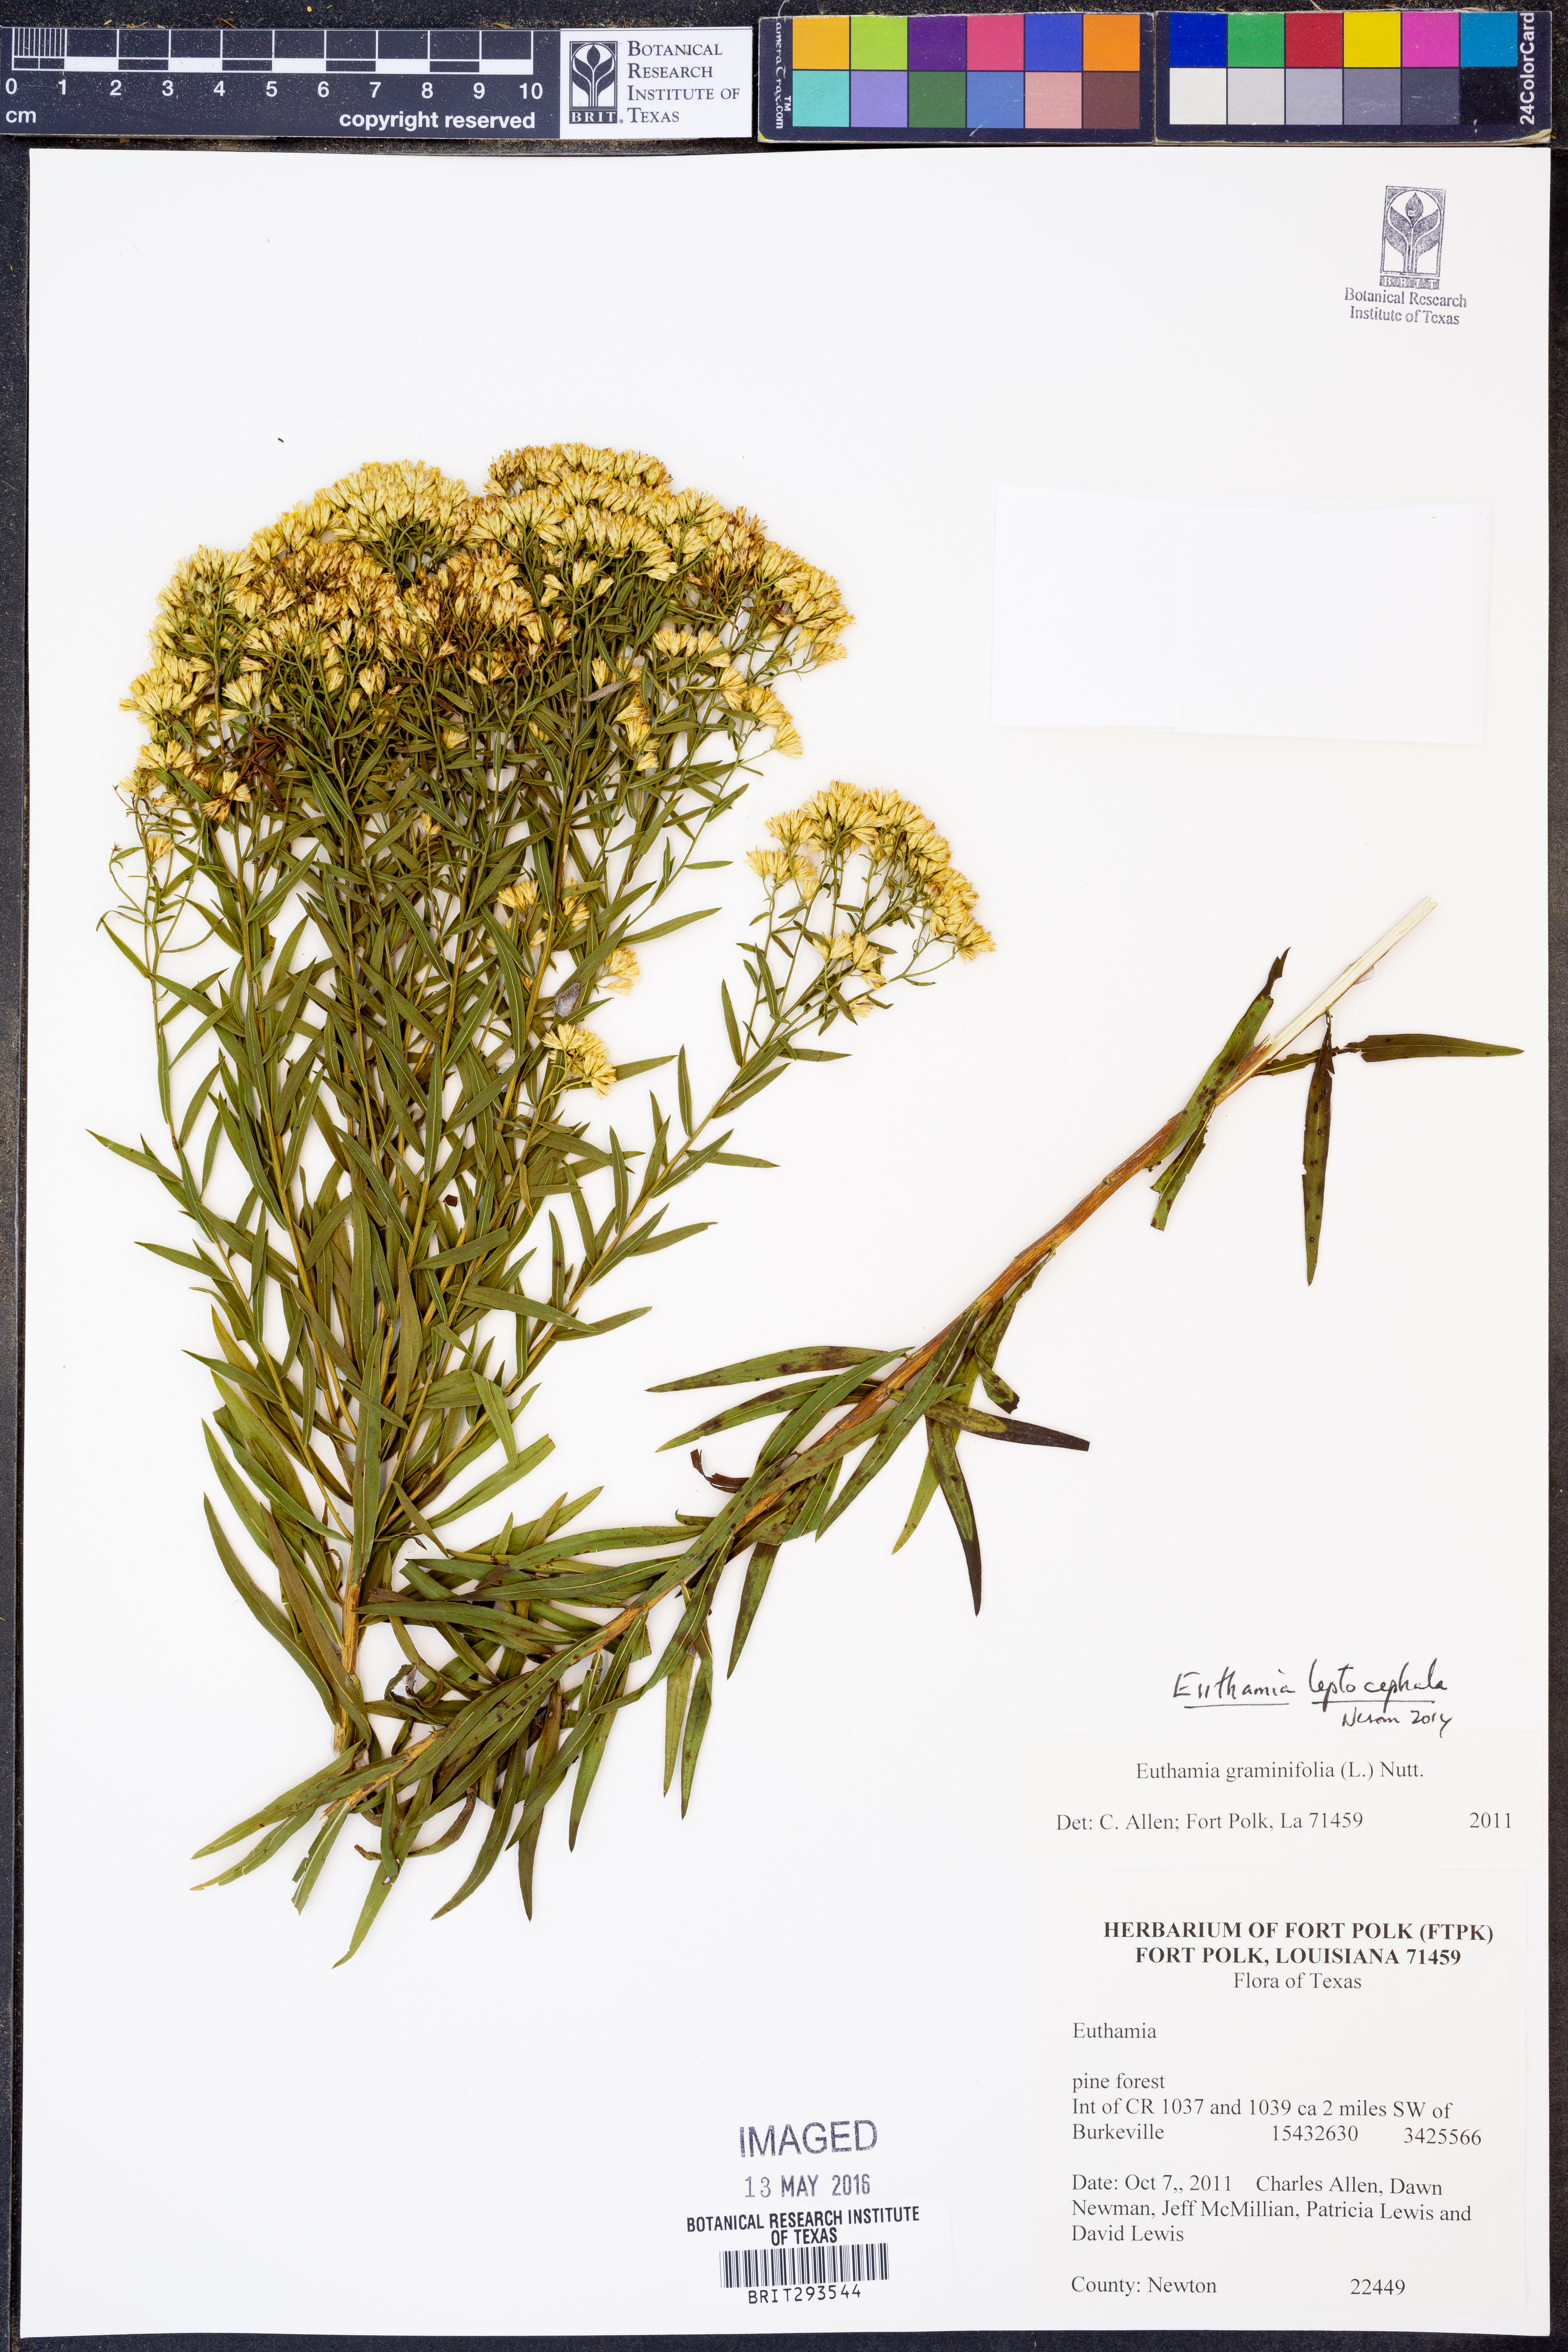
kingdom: Plantae
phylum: Tracheophyta
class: Magnoliopsida
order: Asterales
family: Asteraceae
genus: Euthamia
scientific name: Euthamia leptocephala
